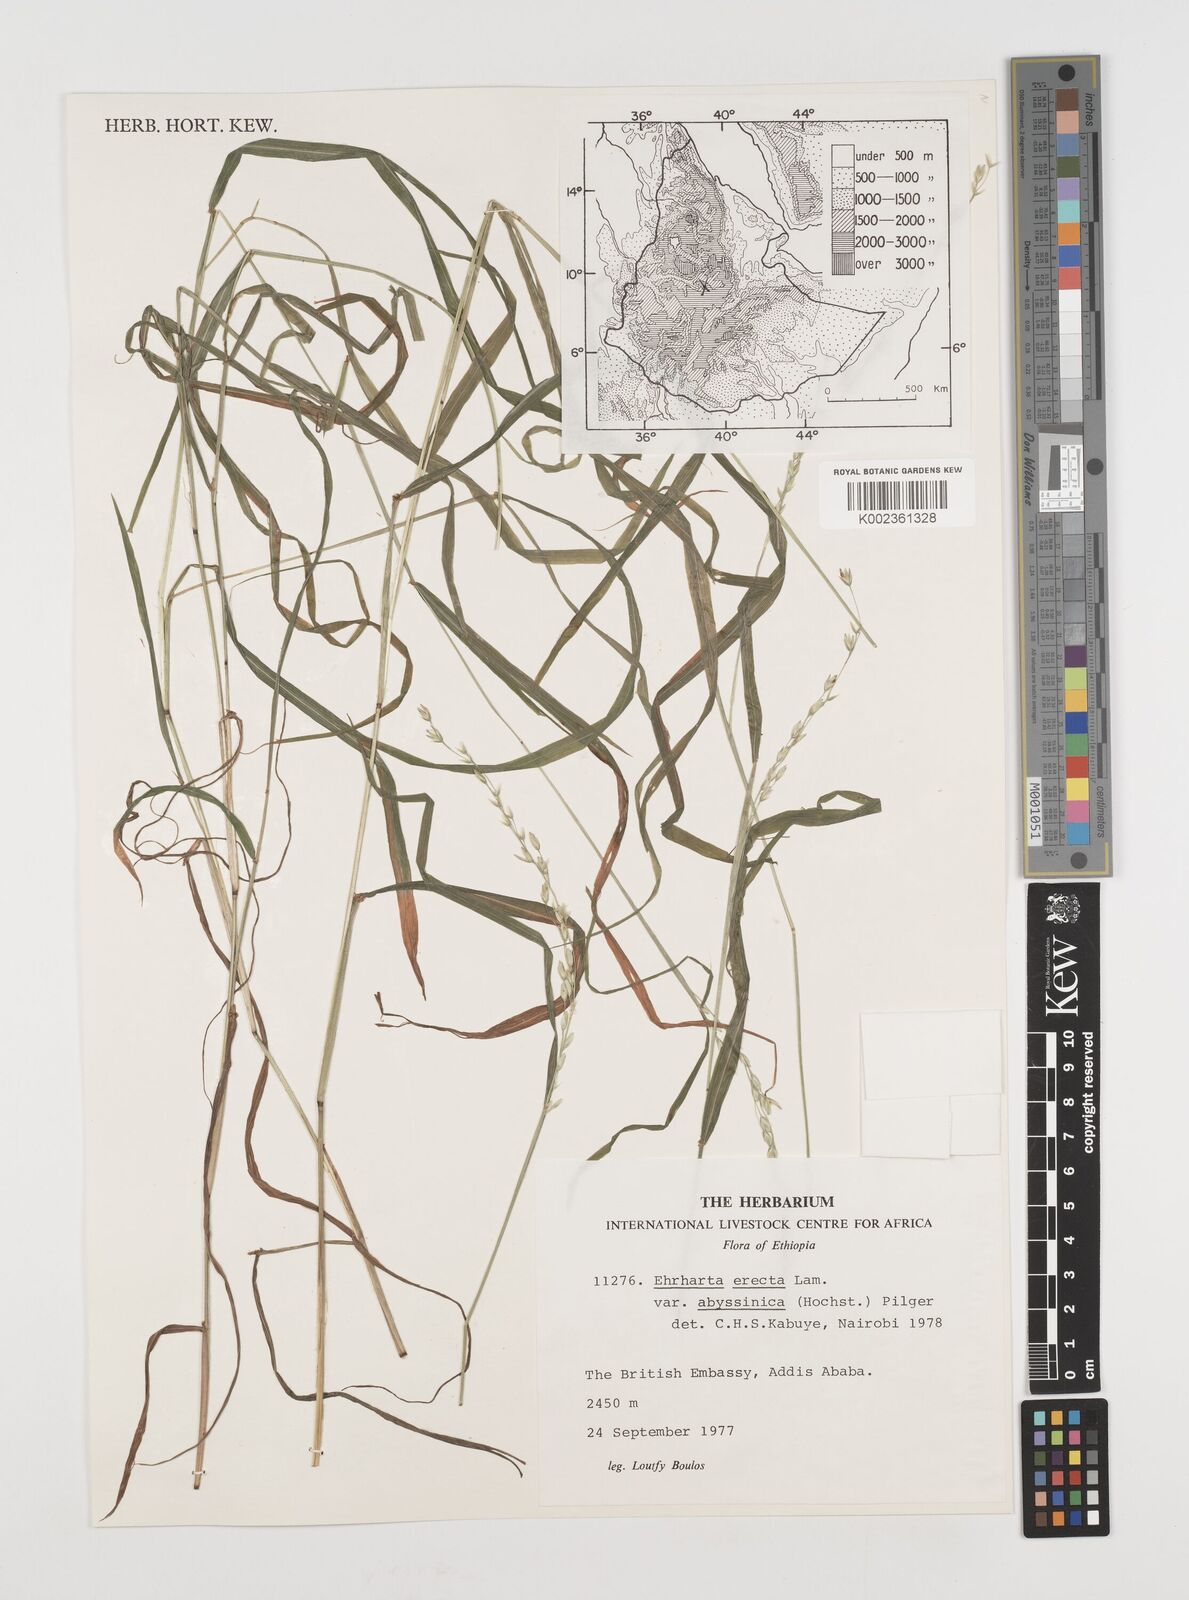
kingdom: Plantae
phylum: Tracheophyta
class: Liliopsida
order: Poales
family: Poaceae
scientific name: Poaceae
